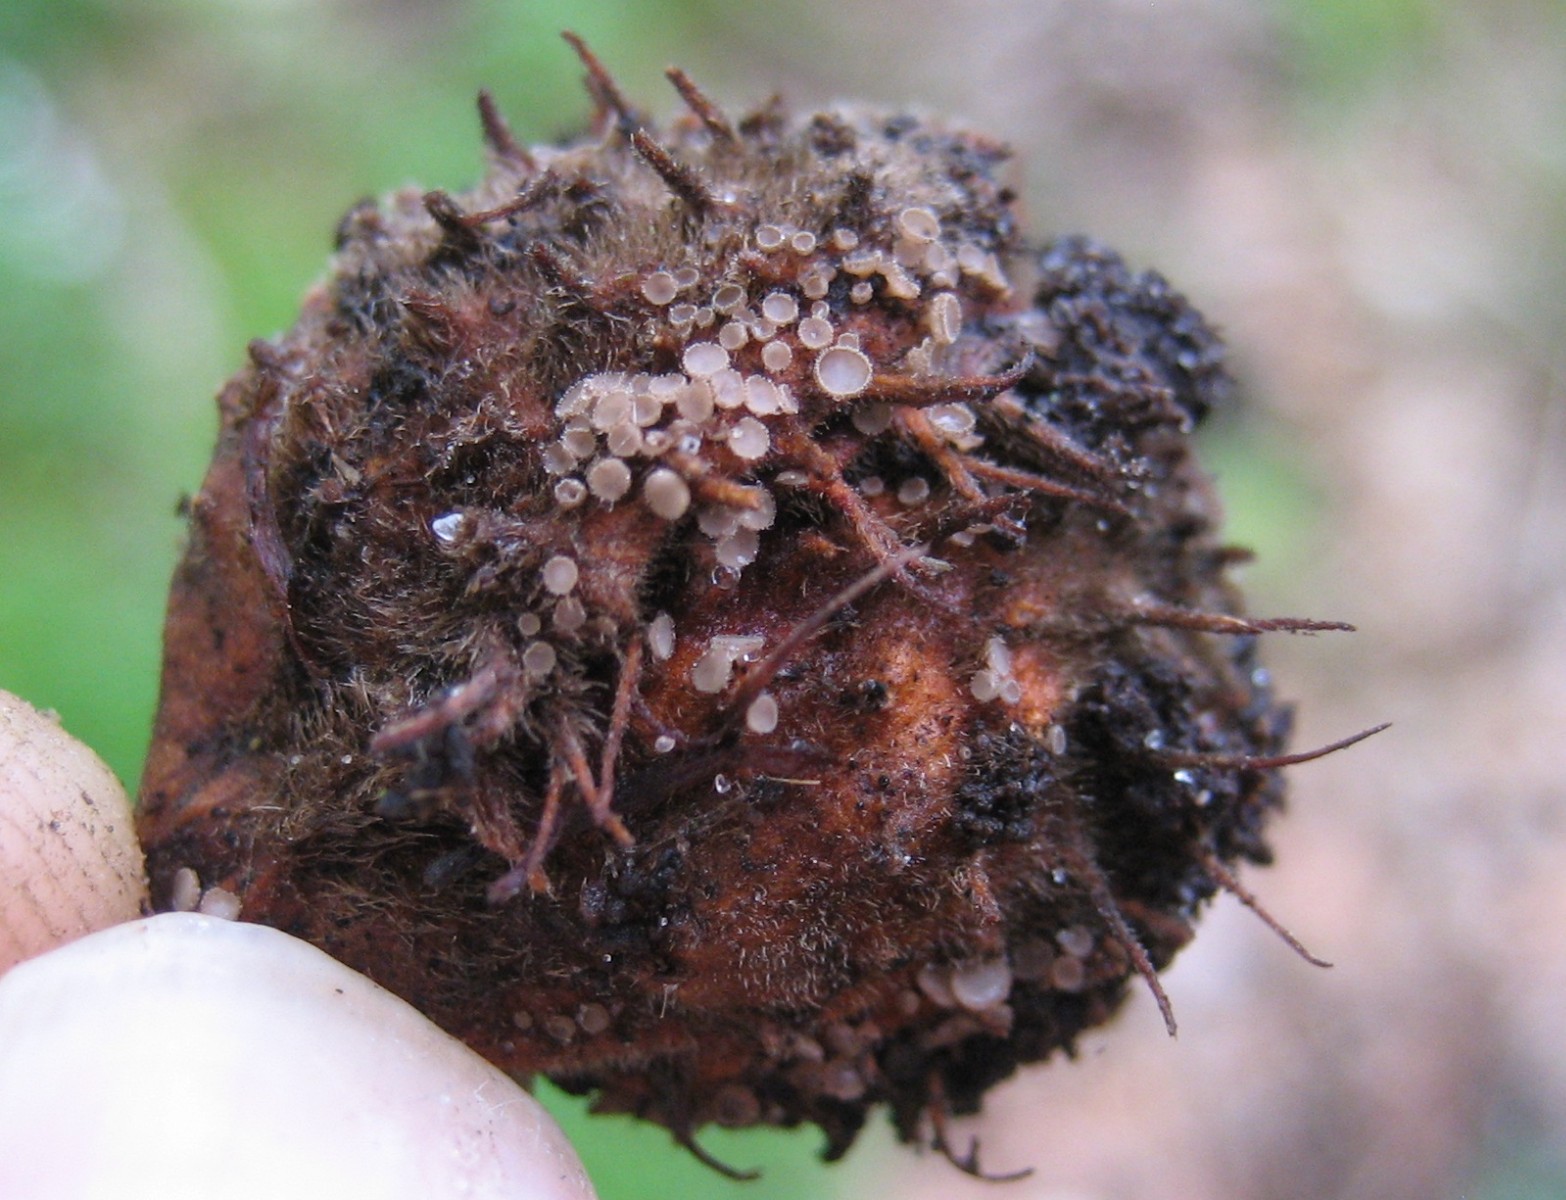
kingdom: Fungi
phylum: Ascomycota
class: Leotiomycetes
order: Helotiales
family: Lachnaceae
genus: Brunnipila
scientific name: Brunnipila fuscescens
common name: bøge-frynseskive
